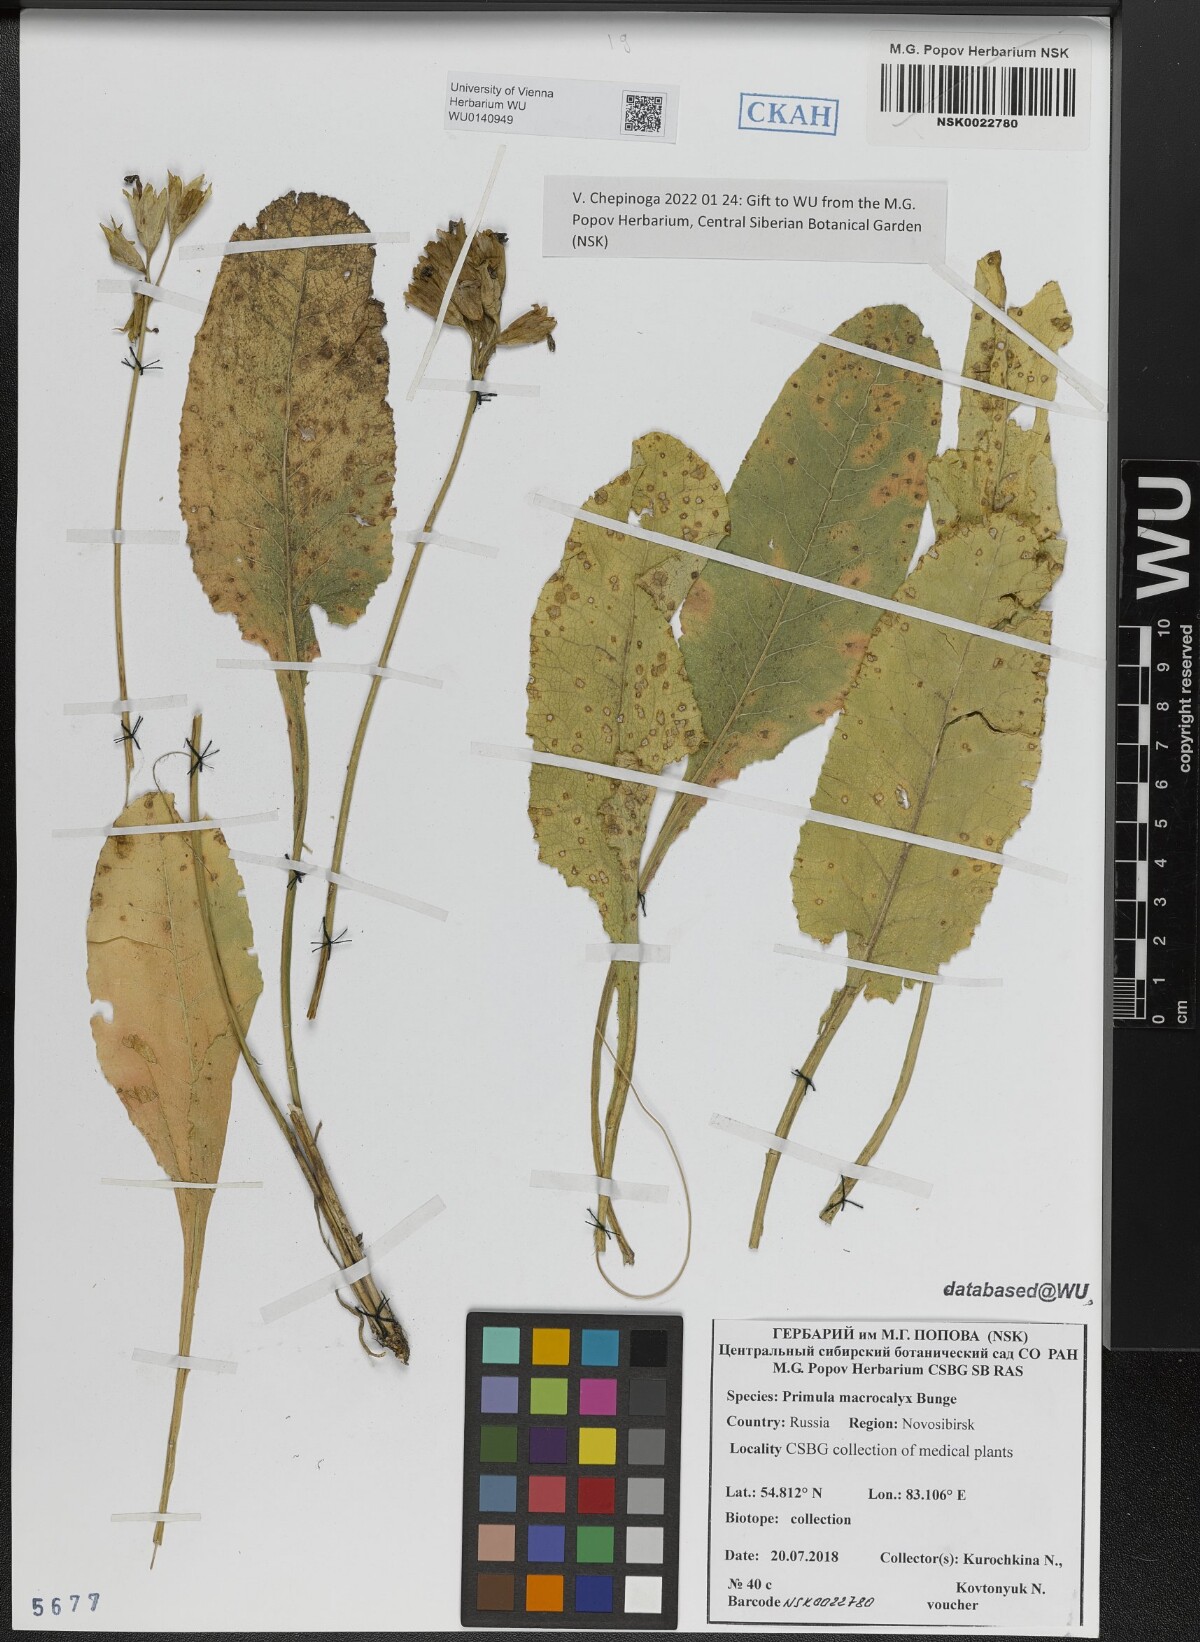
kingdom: Plantae
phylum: Tracheophyta
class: Magnoliopsida
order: Ericales
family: Primulaceae
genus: Primula
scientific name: Primula veris
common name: Cowslip
